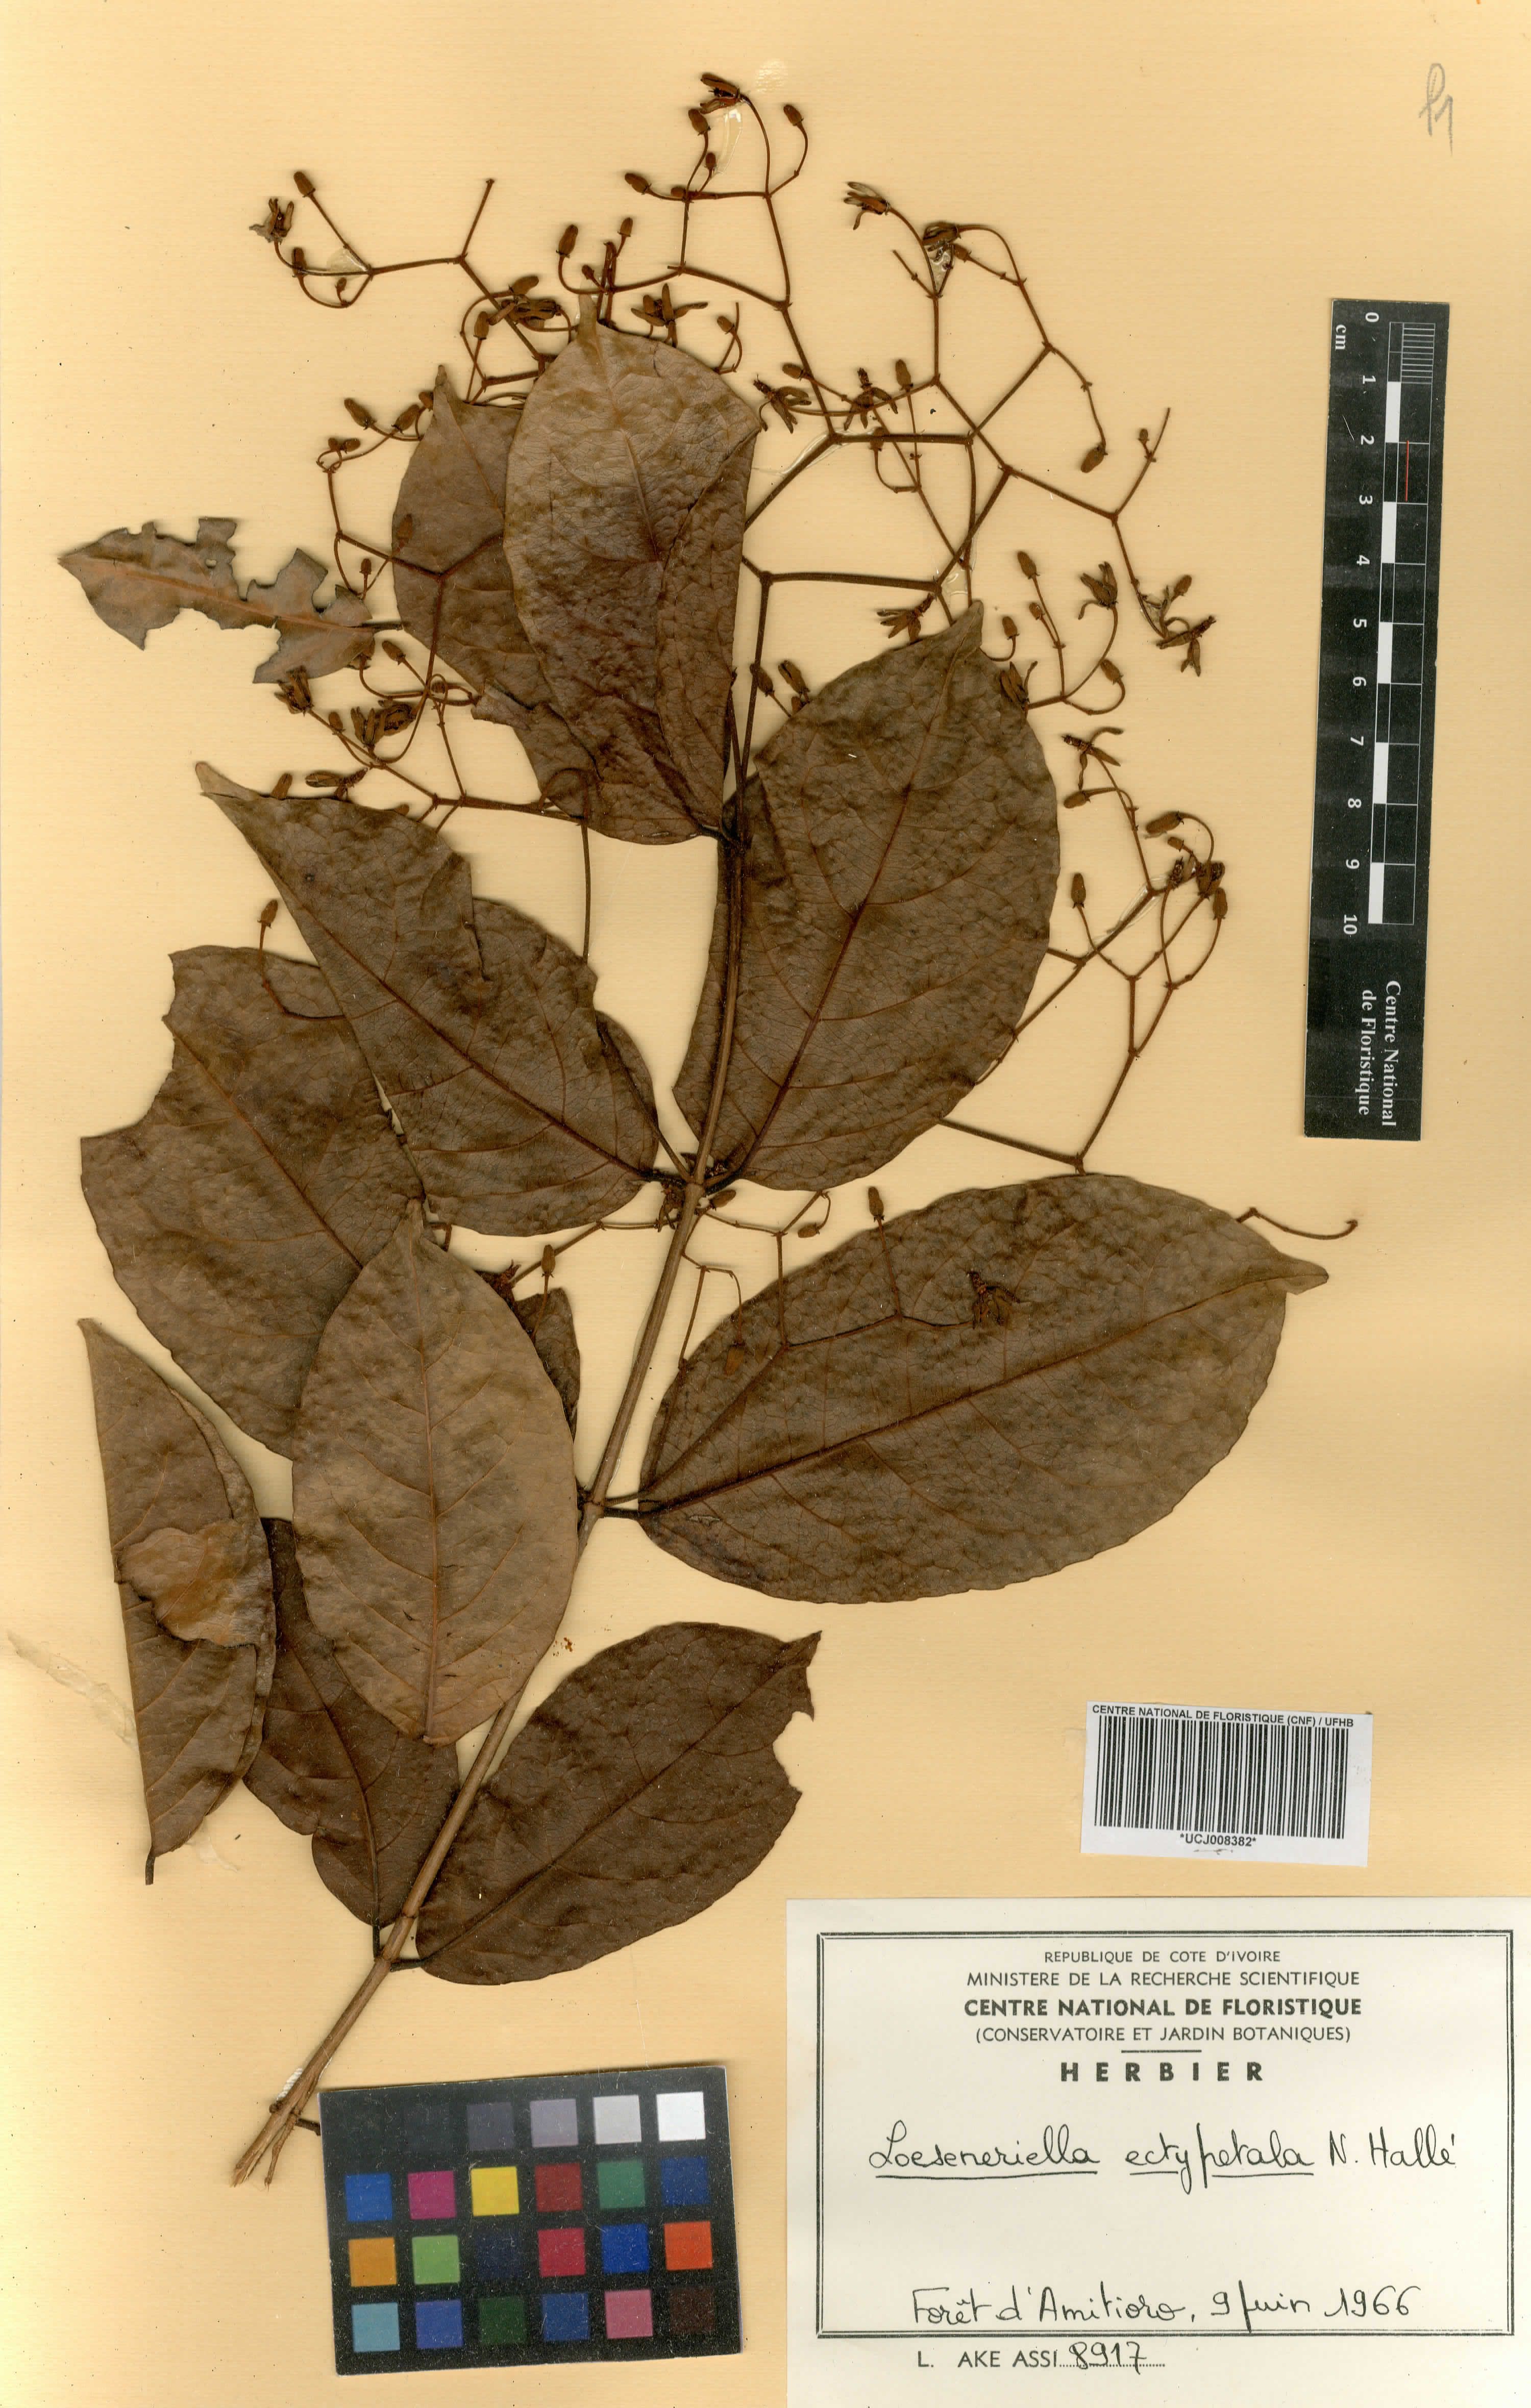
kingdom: Plantae
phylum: Tracheophyta
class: Magnoliopsida
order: Celastrales
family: Celastraceae
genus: Loeseneriella
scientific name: Loeseneriella ectypopetala
